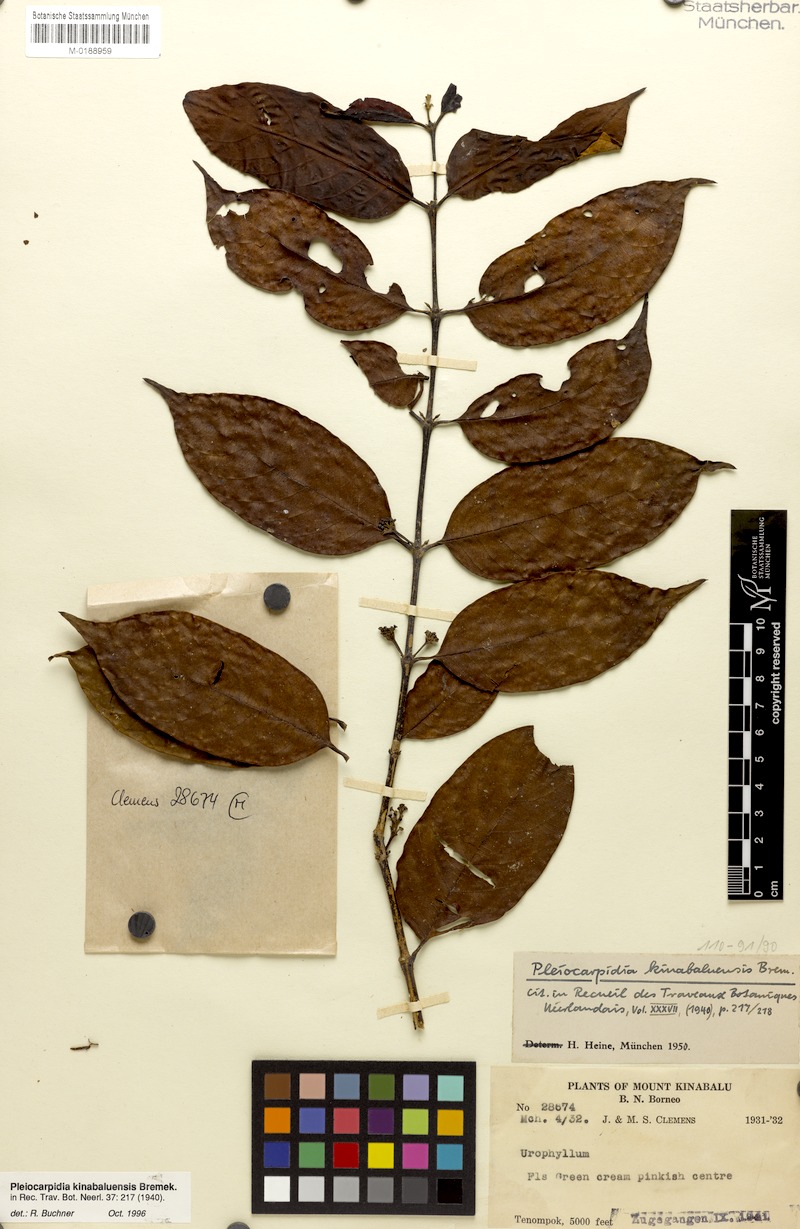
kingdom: Plantae
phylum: Tracheophyta
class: Magnoliopsida
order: Gentianales
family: Rubiaceae
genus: Urophyllum
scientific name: Urophyllum kinabaluense
